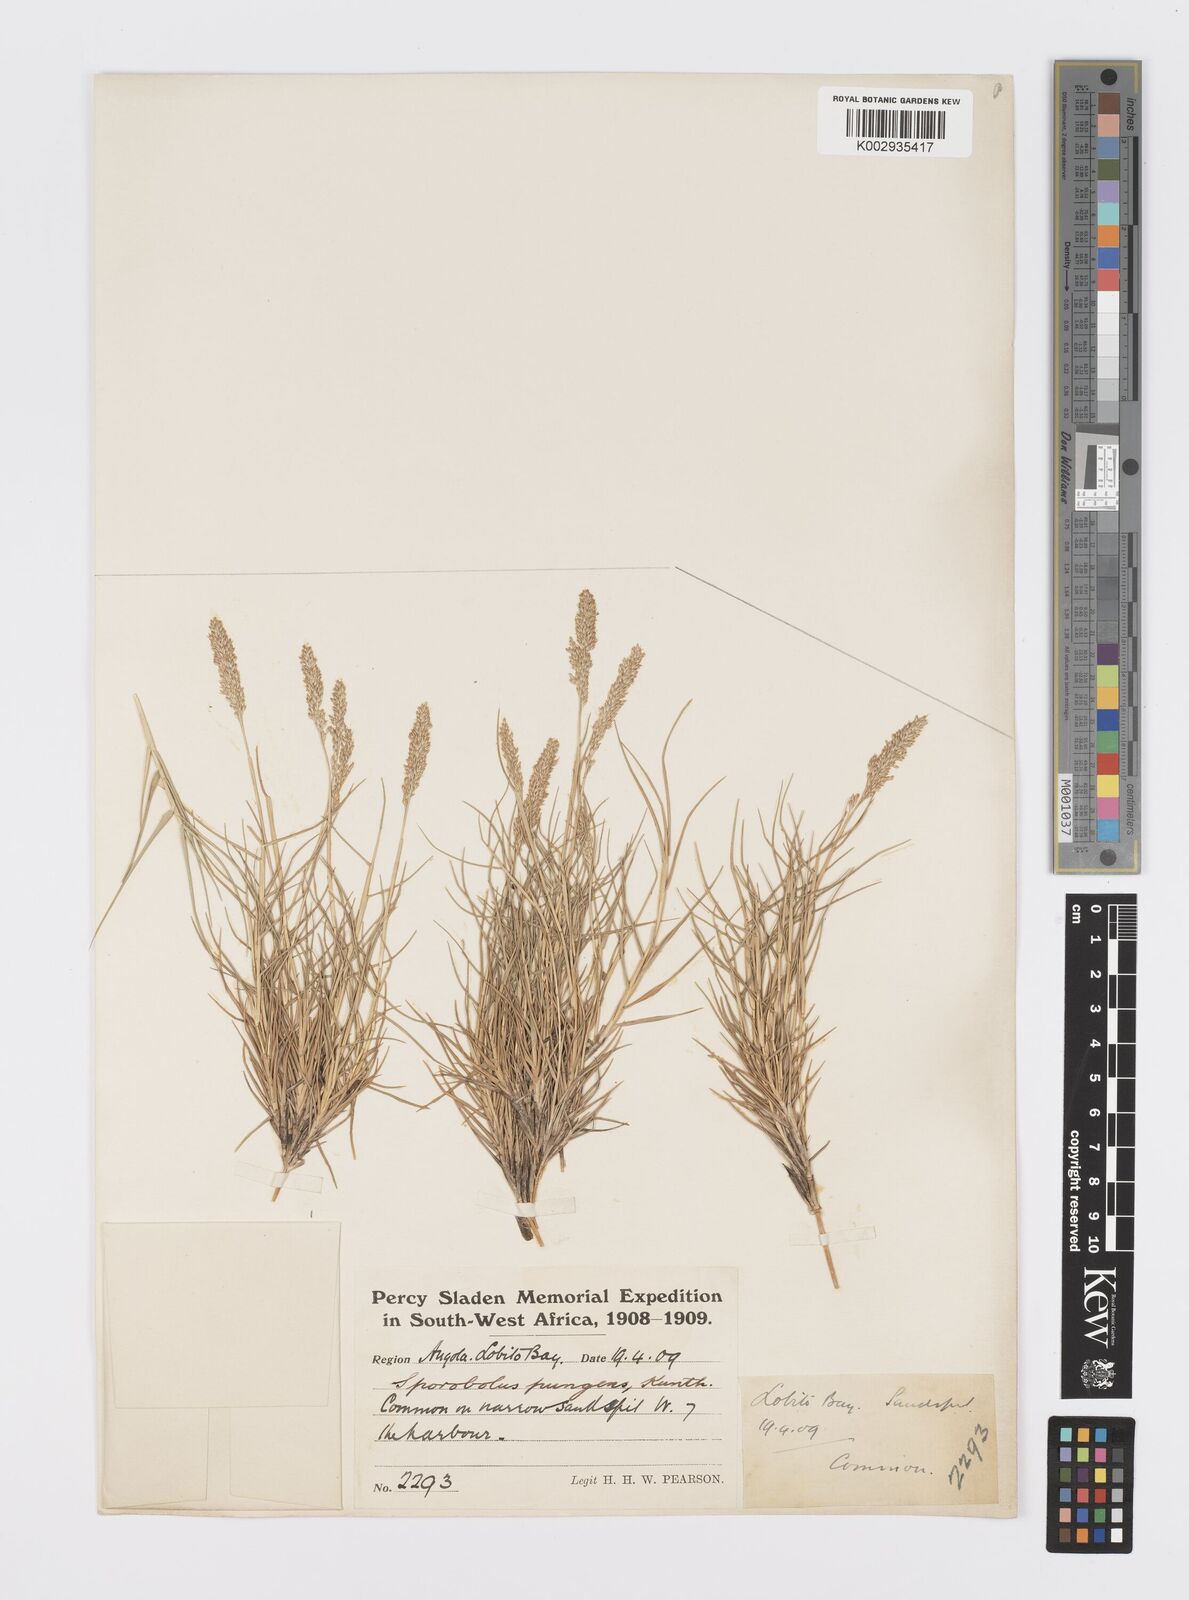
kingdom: Plantae
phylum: Tracheophyta
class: Liliopsida
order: Poales
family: Poaceae
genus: Sporobolus
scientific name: Sporobolus virginicus
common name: Beach dropseed
